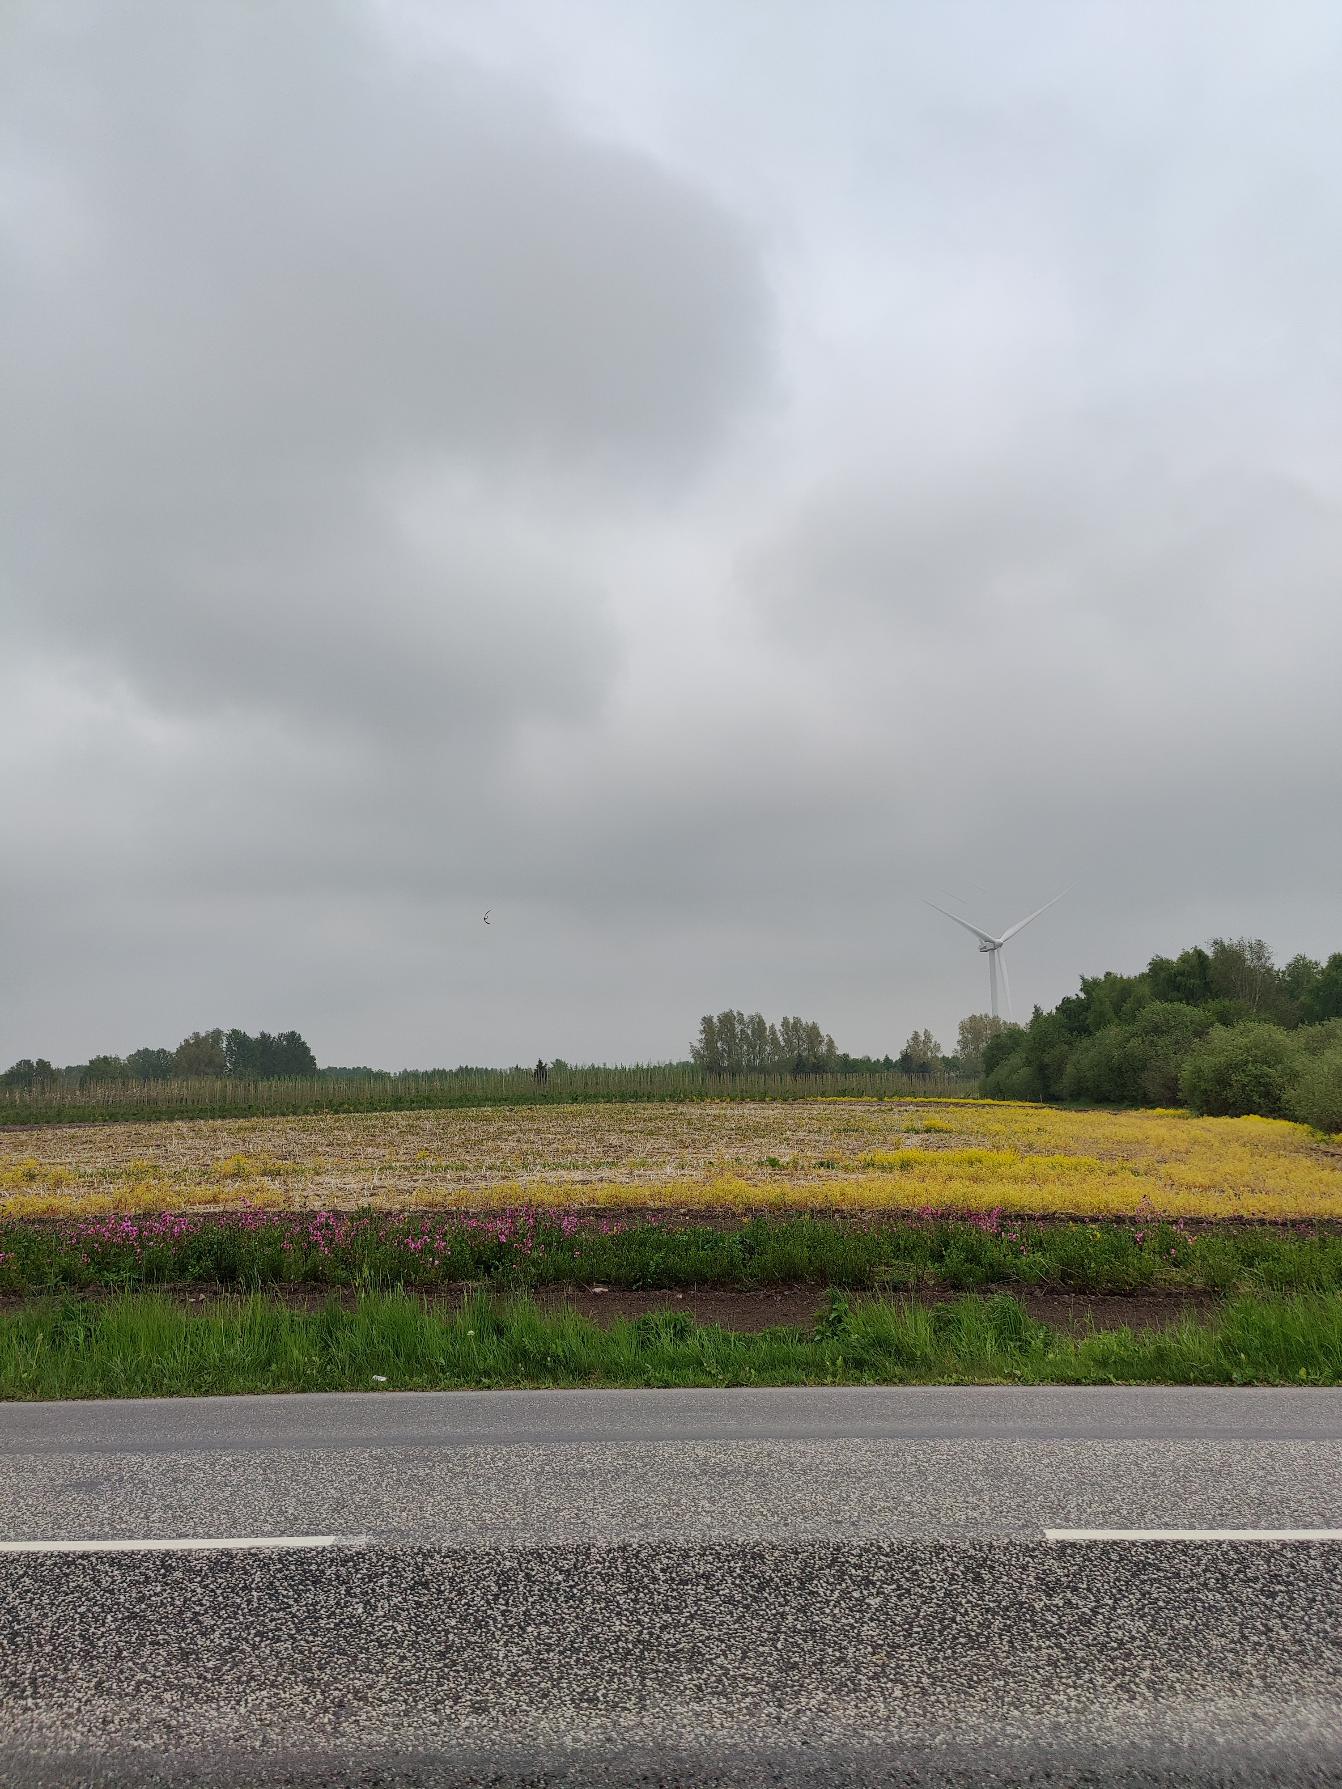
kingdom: Animalia
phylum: Chordata
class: Aves
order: Charadriiformes
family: Charadriidae
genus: Vanellus
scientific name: Vanellus vanellus
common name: Vibe
